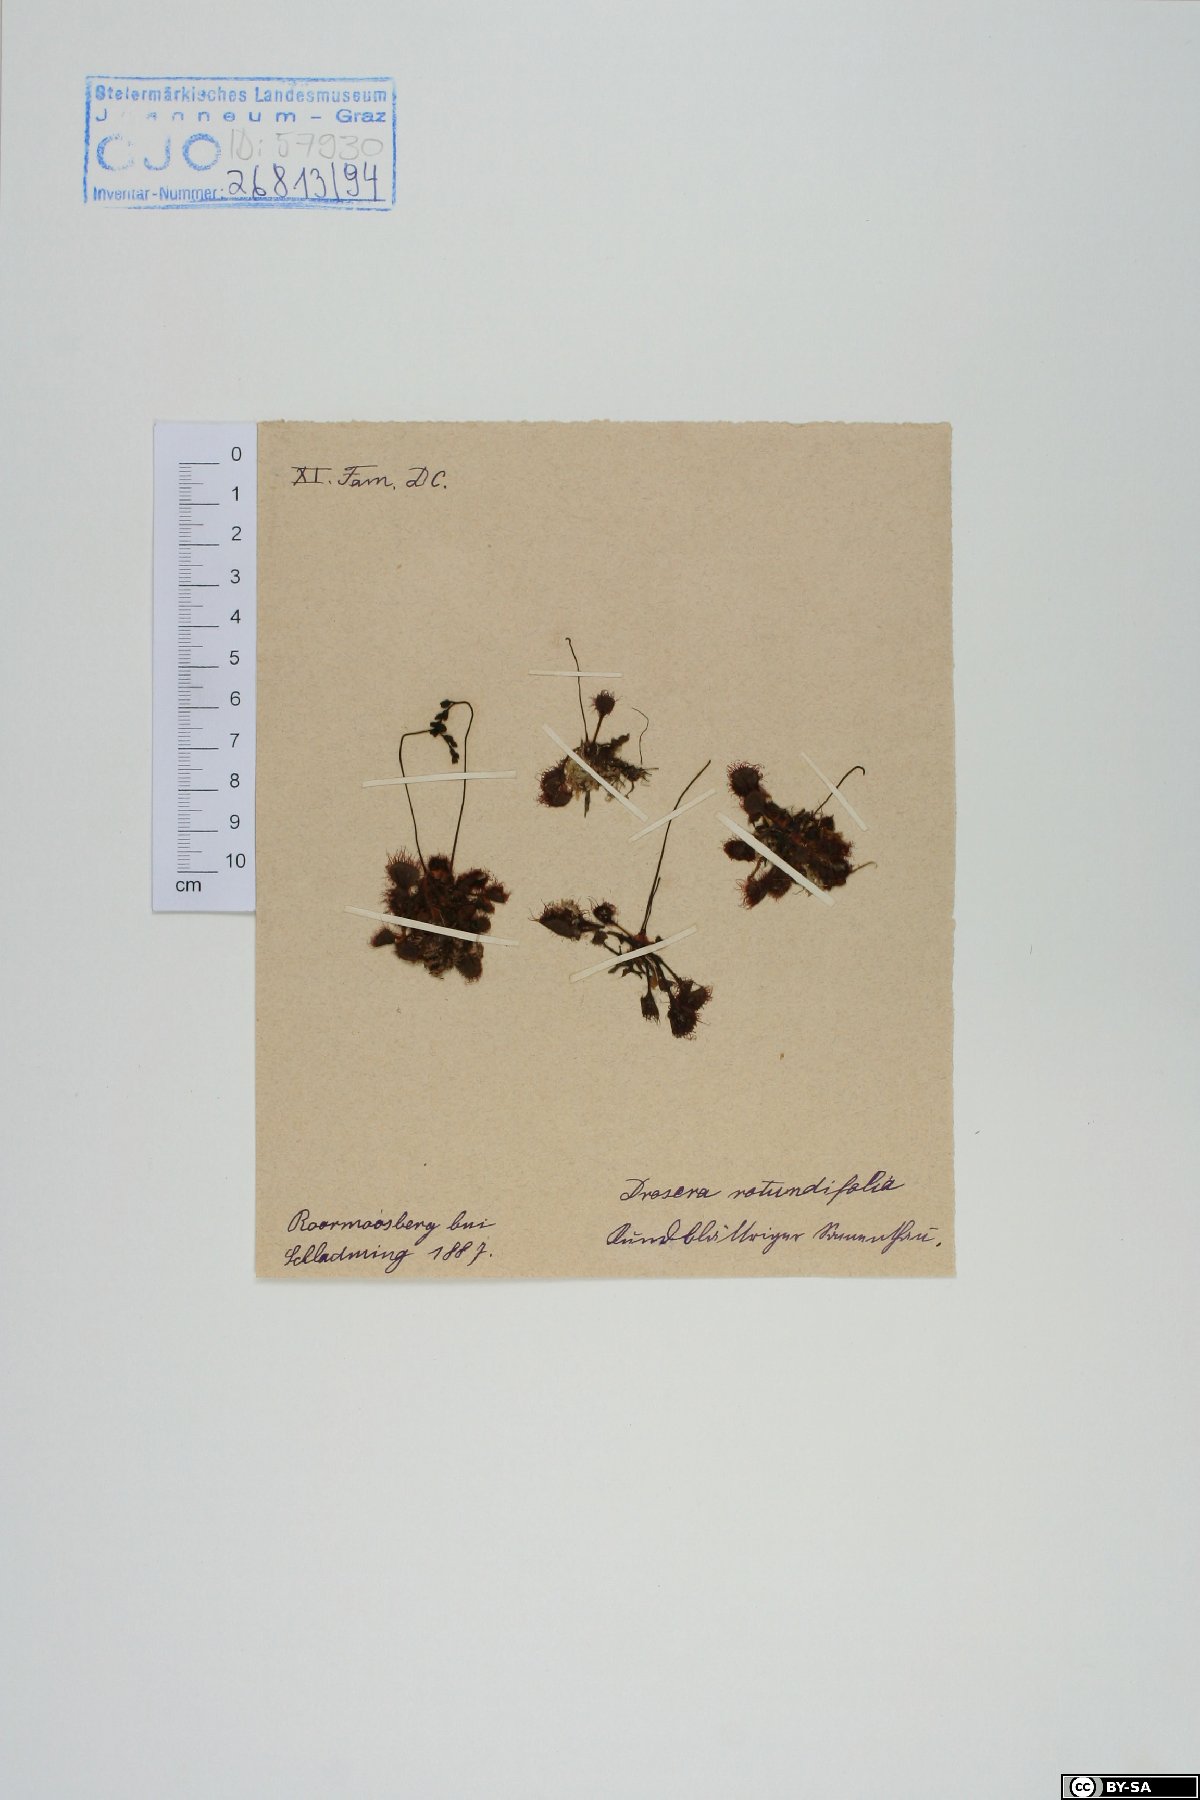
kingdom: Plantae
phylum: Tracheophyta
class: Magnoliopsida
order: Caryophyllales
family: Droseraceae
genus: Drosera
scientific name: Drosera rotundifolia
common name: Round-leaved sundew
